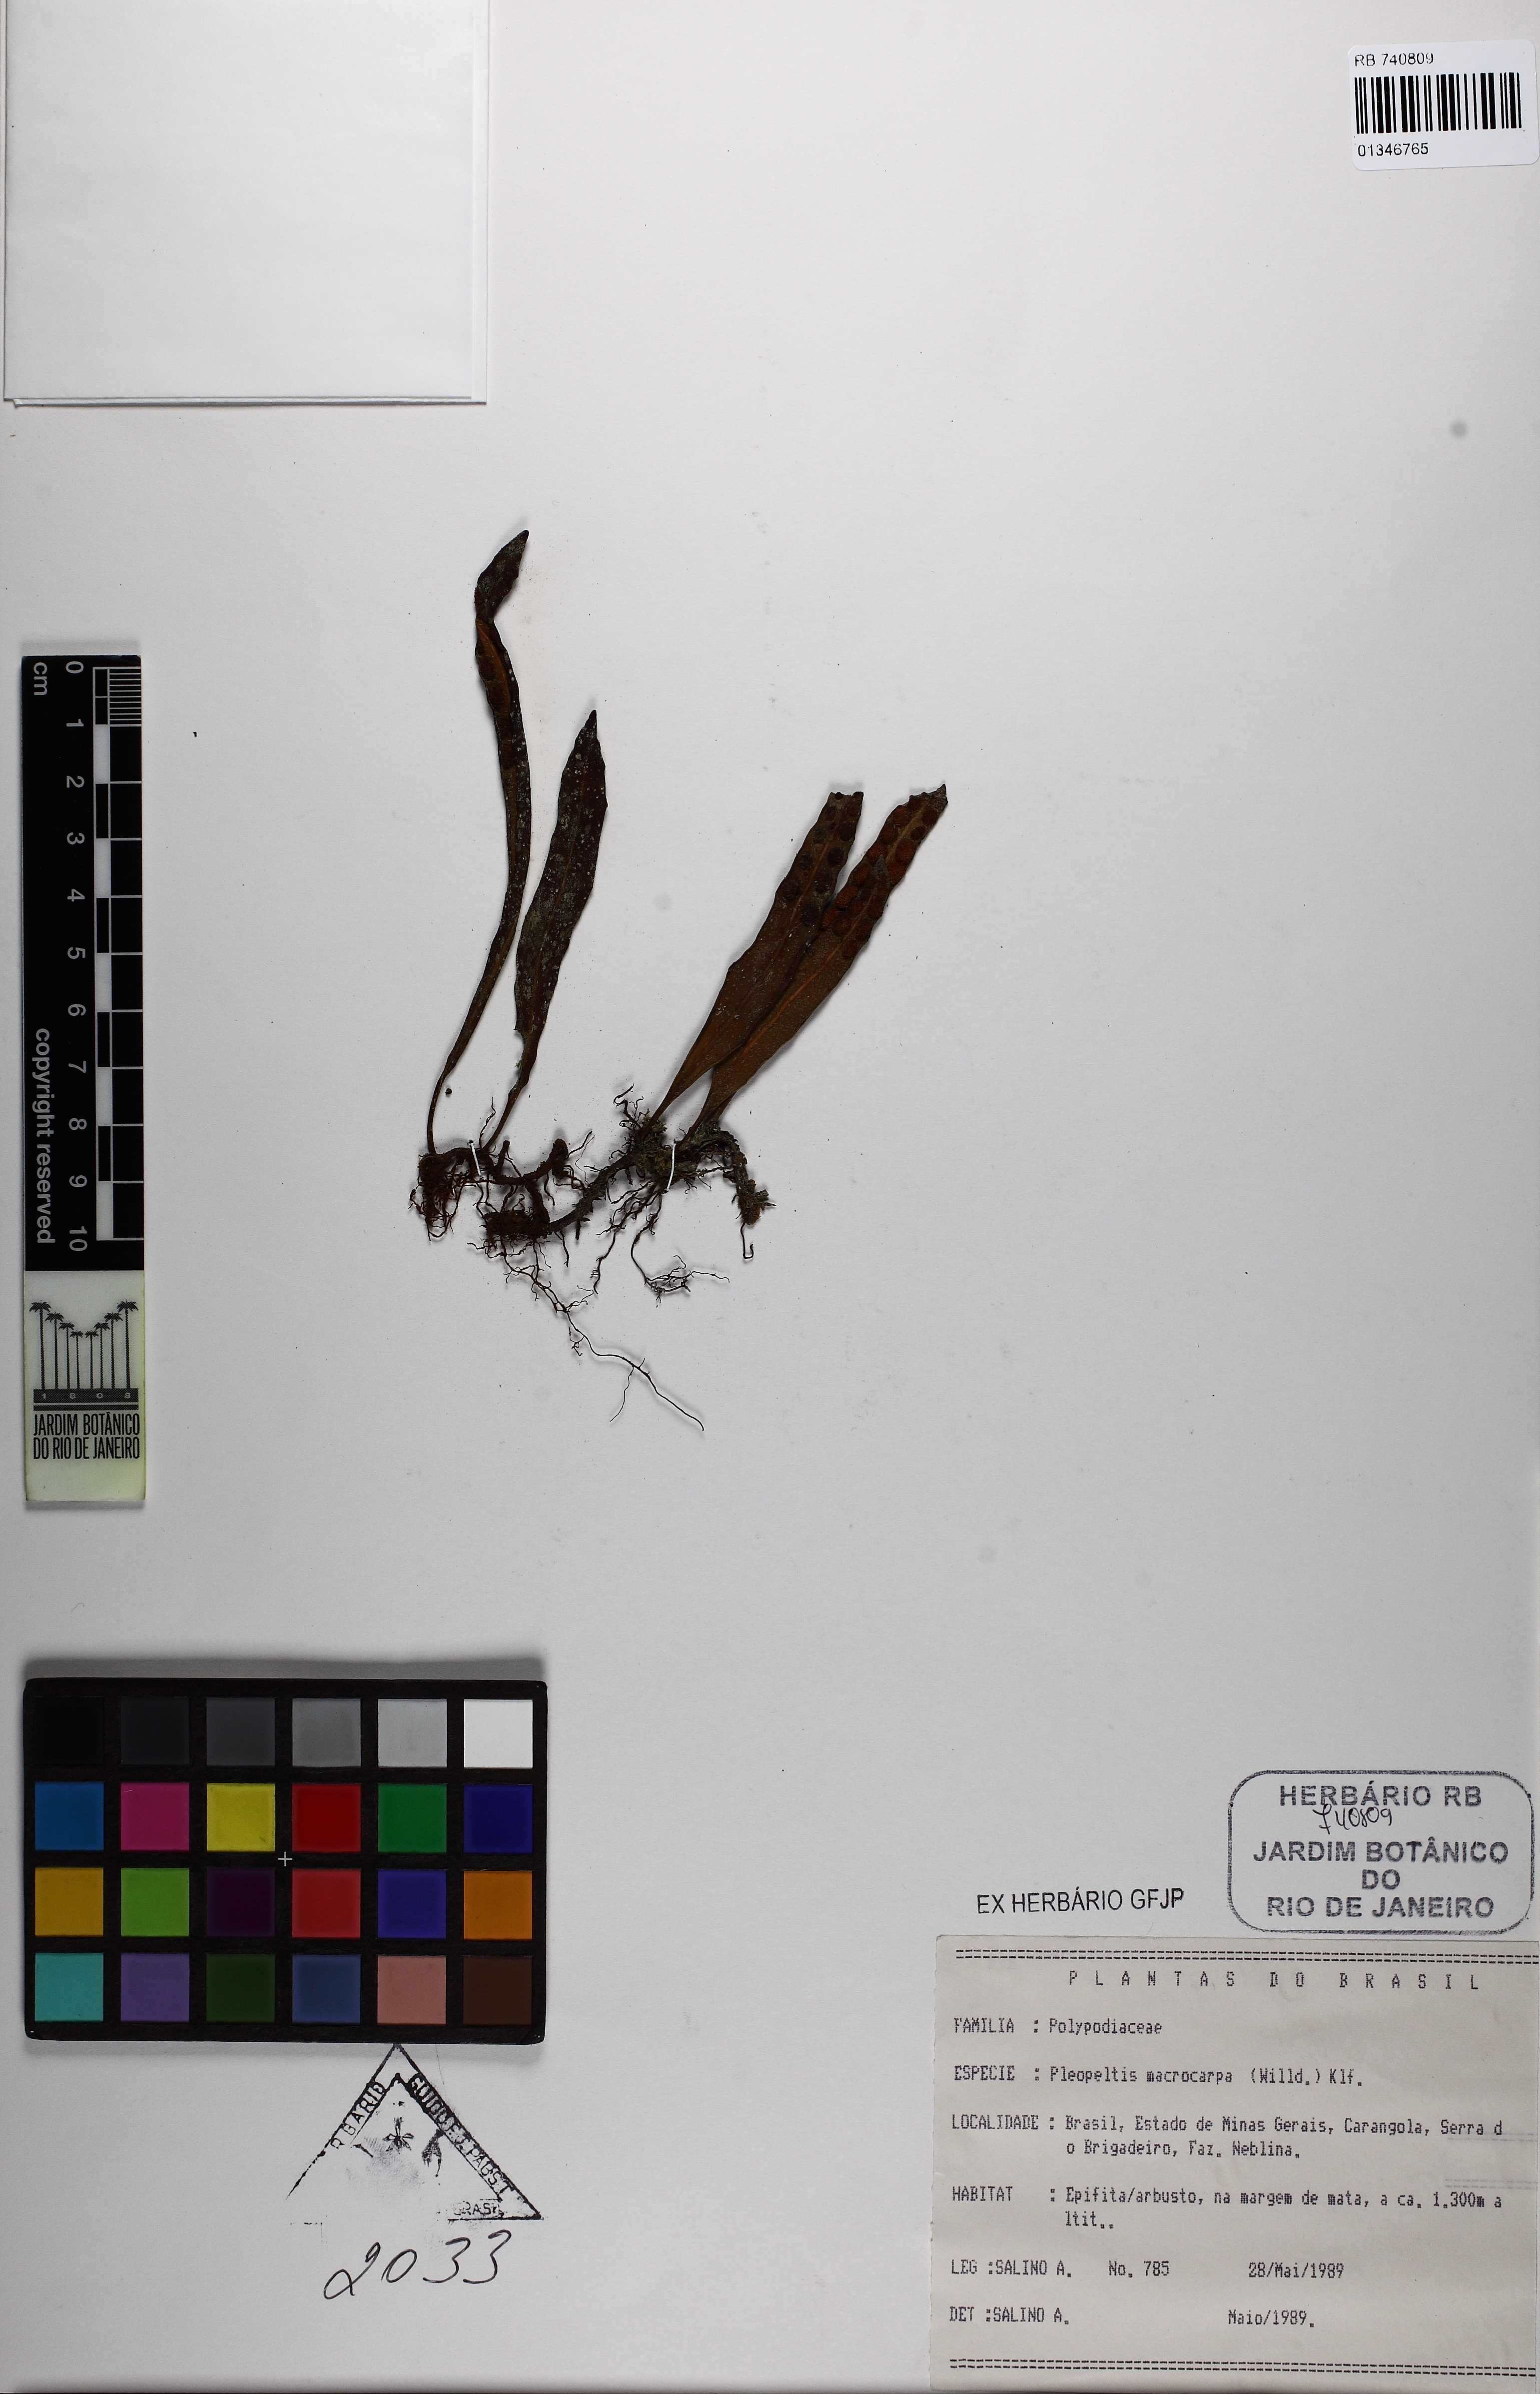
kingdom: Plantae
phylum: Tracheophyta
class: Polypodiopsida
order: Polypodiales
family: Polypodiaceae
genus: Pleopeltis
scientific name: Pleopeltis macrocarpa
